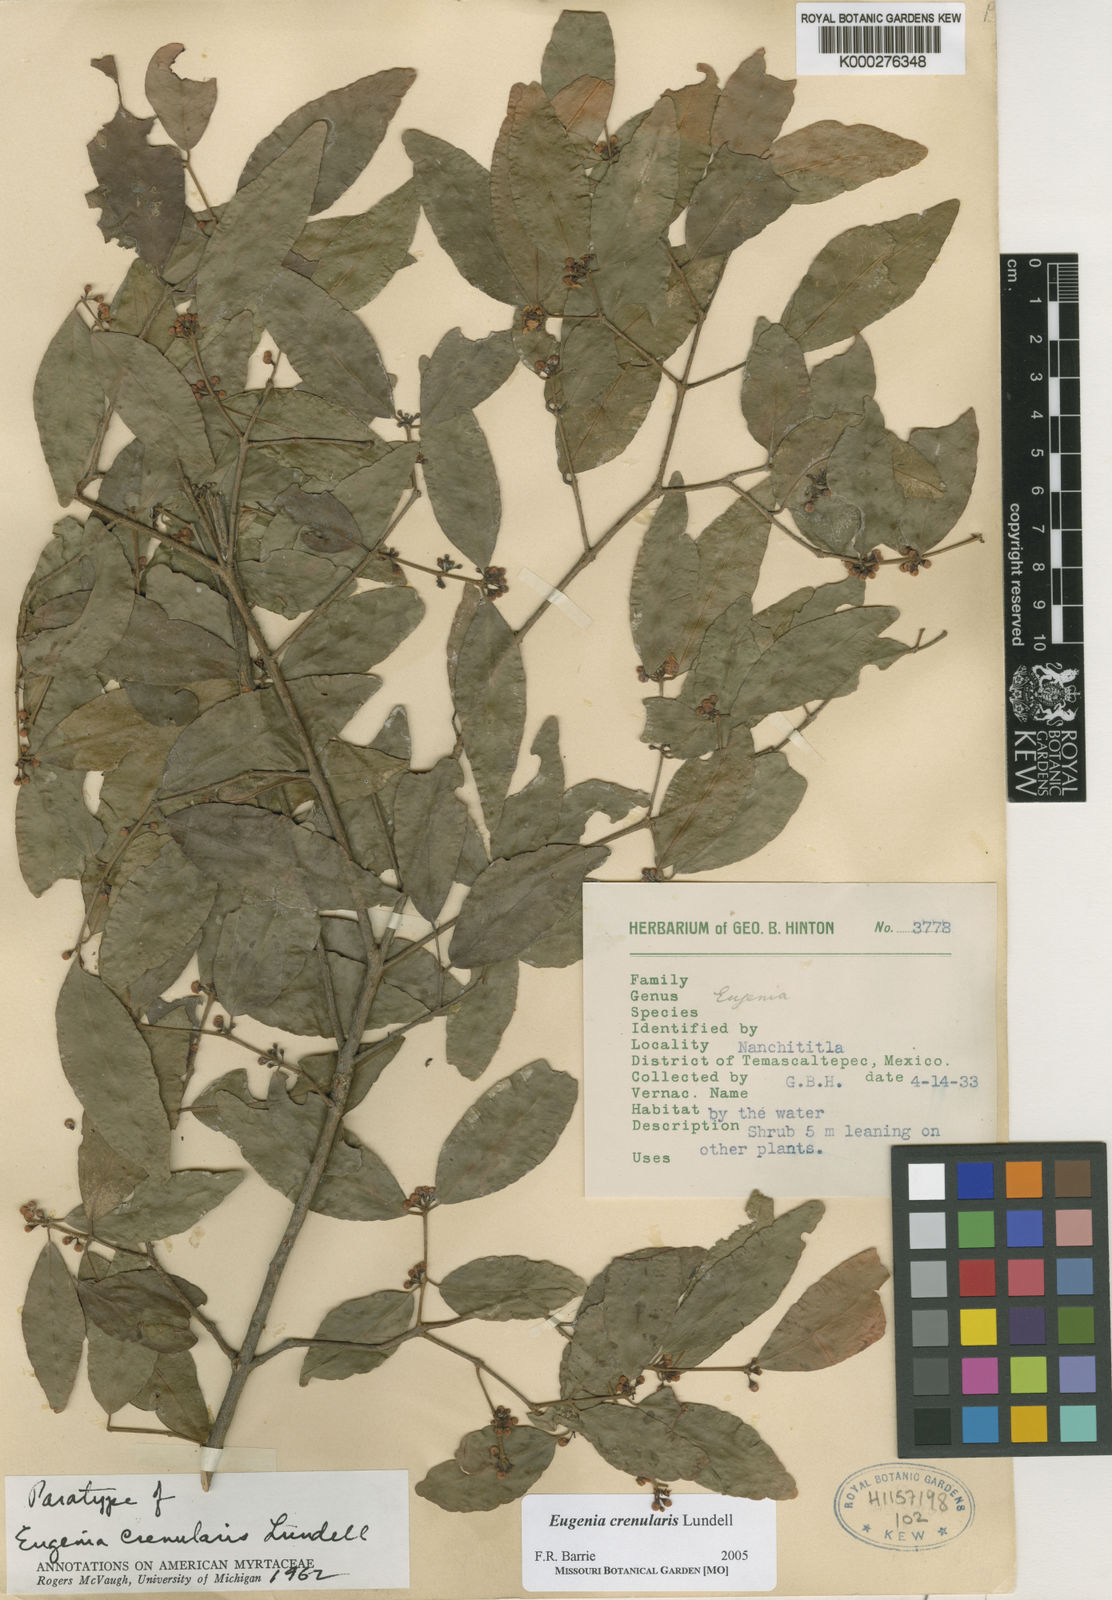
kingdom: Plantae
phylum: Tracheophyta
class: Magnoliopsida
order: Myrtales
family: Myrtaceae
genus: Eugenia
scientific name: Eugenia crenularis
